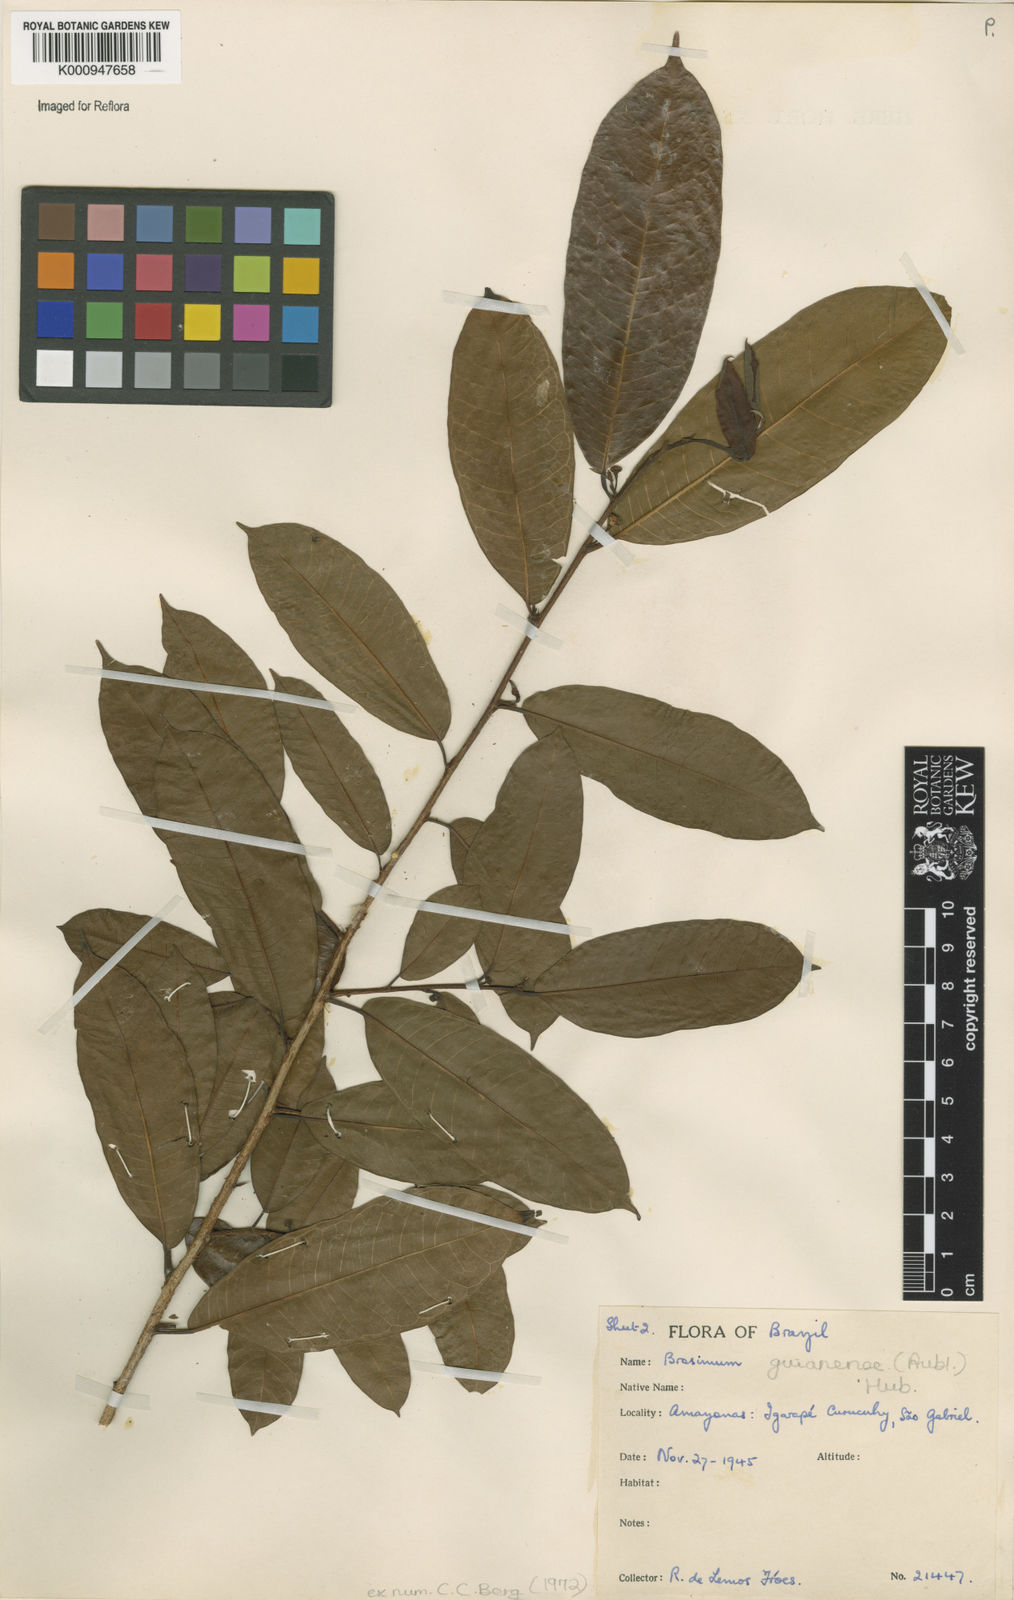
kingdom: Plantae
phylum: Tracheophyta
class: Magnoliopsida
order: Rosales
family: Moraceae
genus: Brosimum
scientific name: Brosimum
